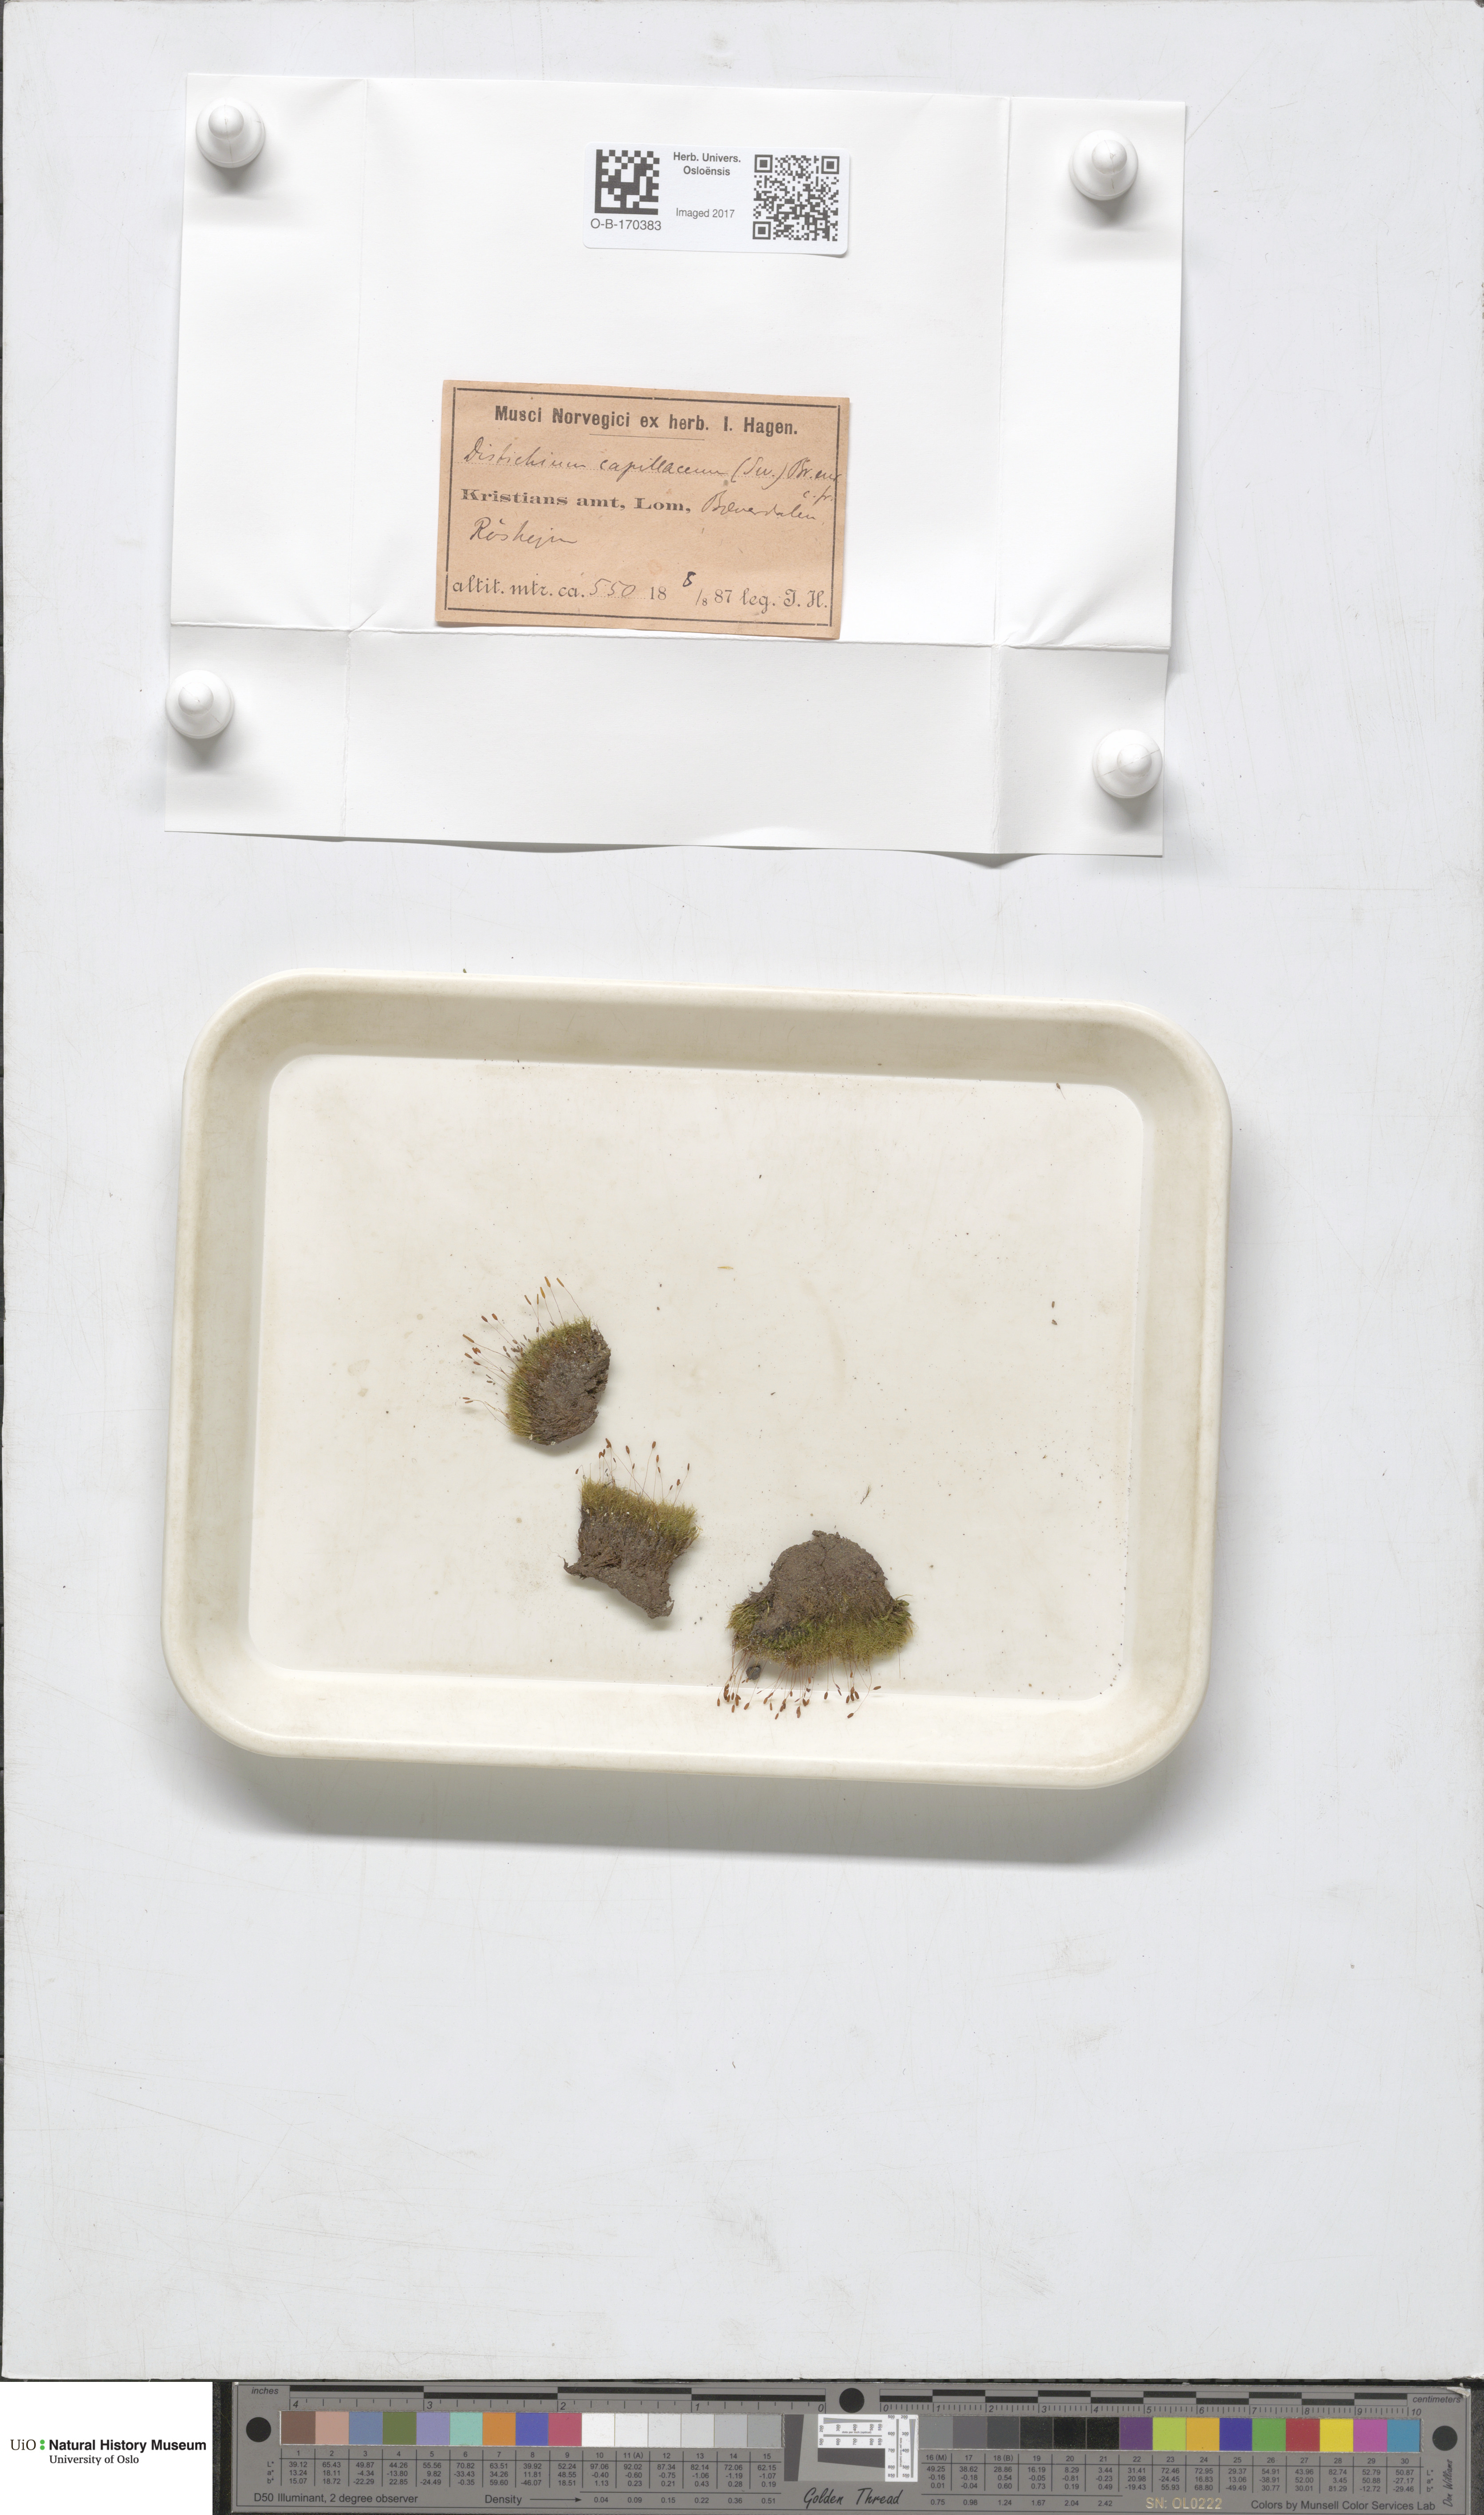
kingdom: Plantae
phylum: Bryophyta
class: Bryopsida
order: Scouleriales
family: Distichiaceae
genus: Distichium
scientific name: Distichium capillaceum
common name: Erect-fruited iris moss
